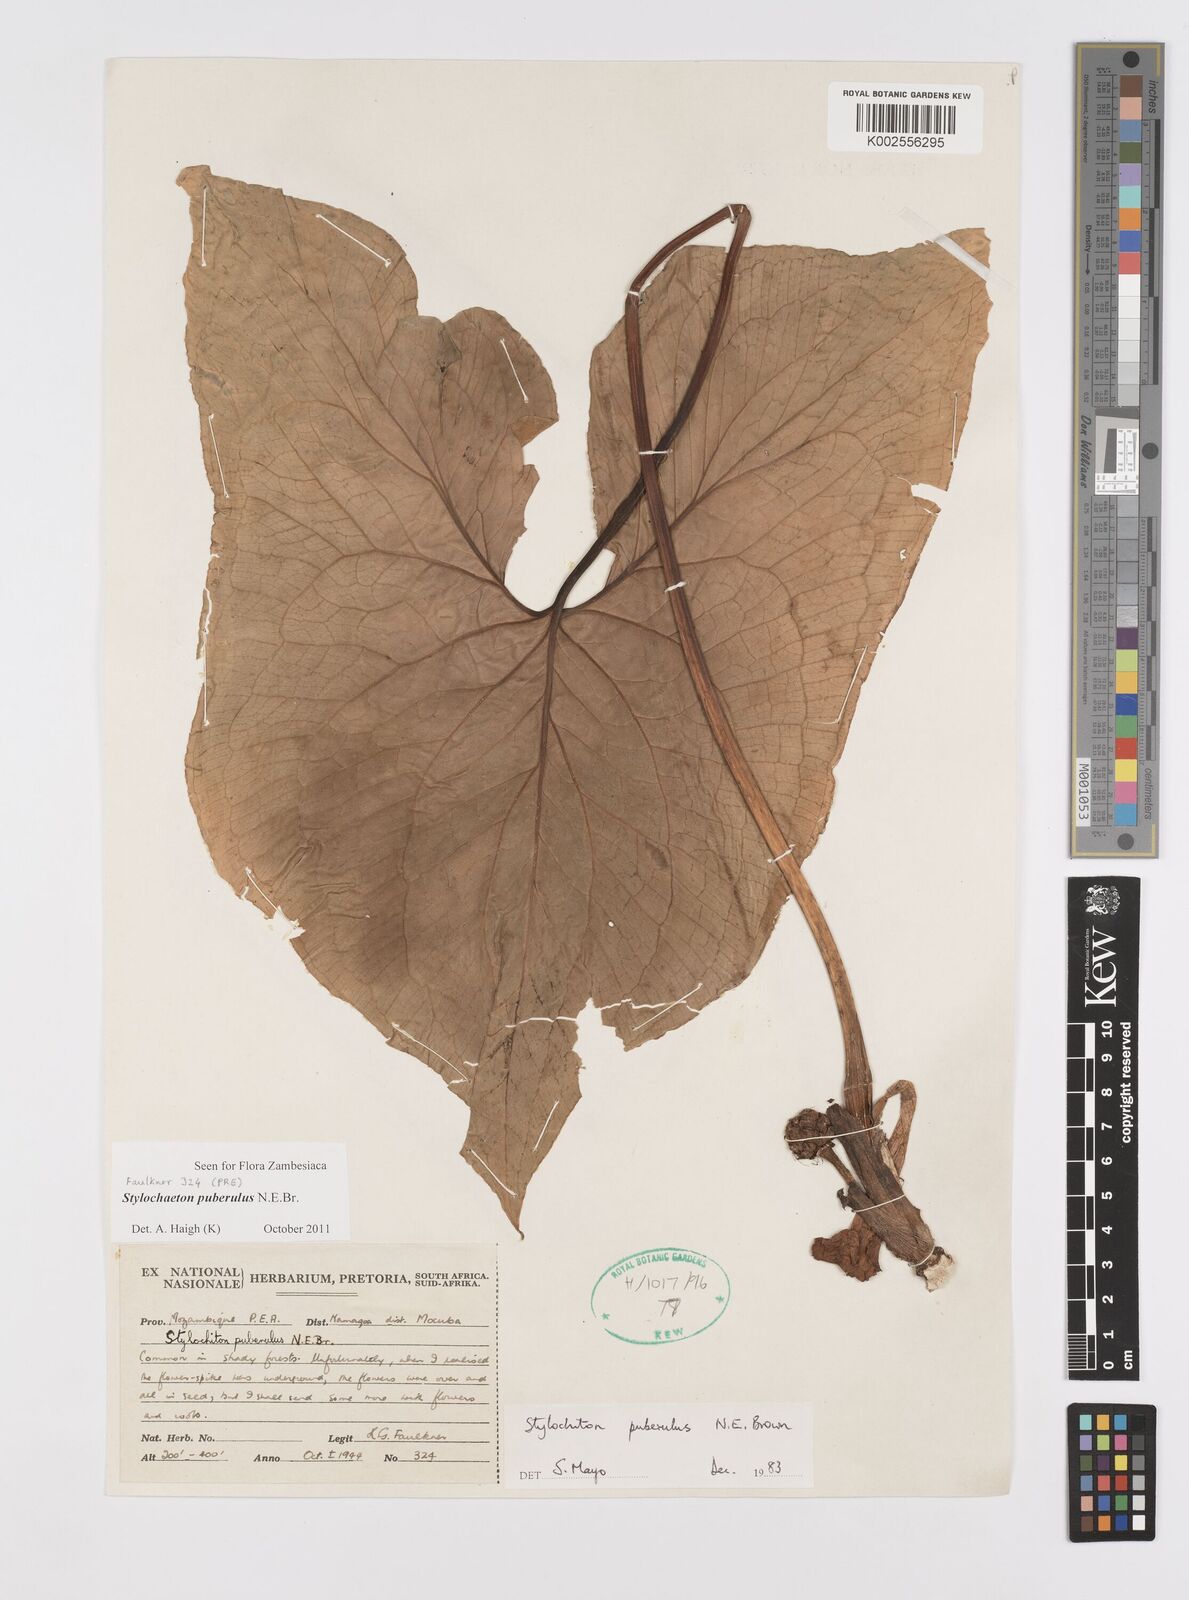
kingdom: Plantae
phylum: Tracheophyta
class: Liliopsida
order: Alismatales
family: Araceae
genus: Stylochaeton
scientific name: Stylochaeton puberulum
